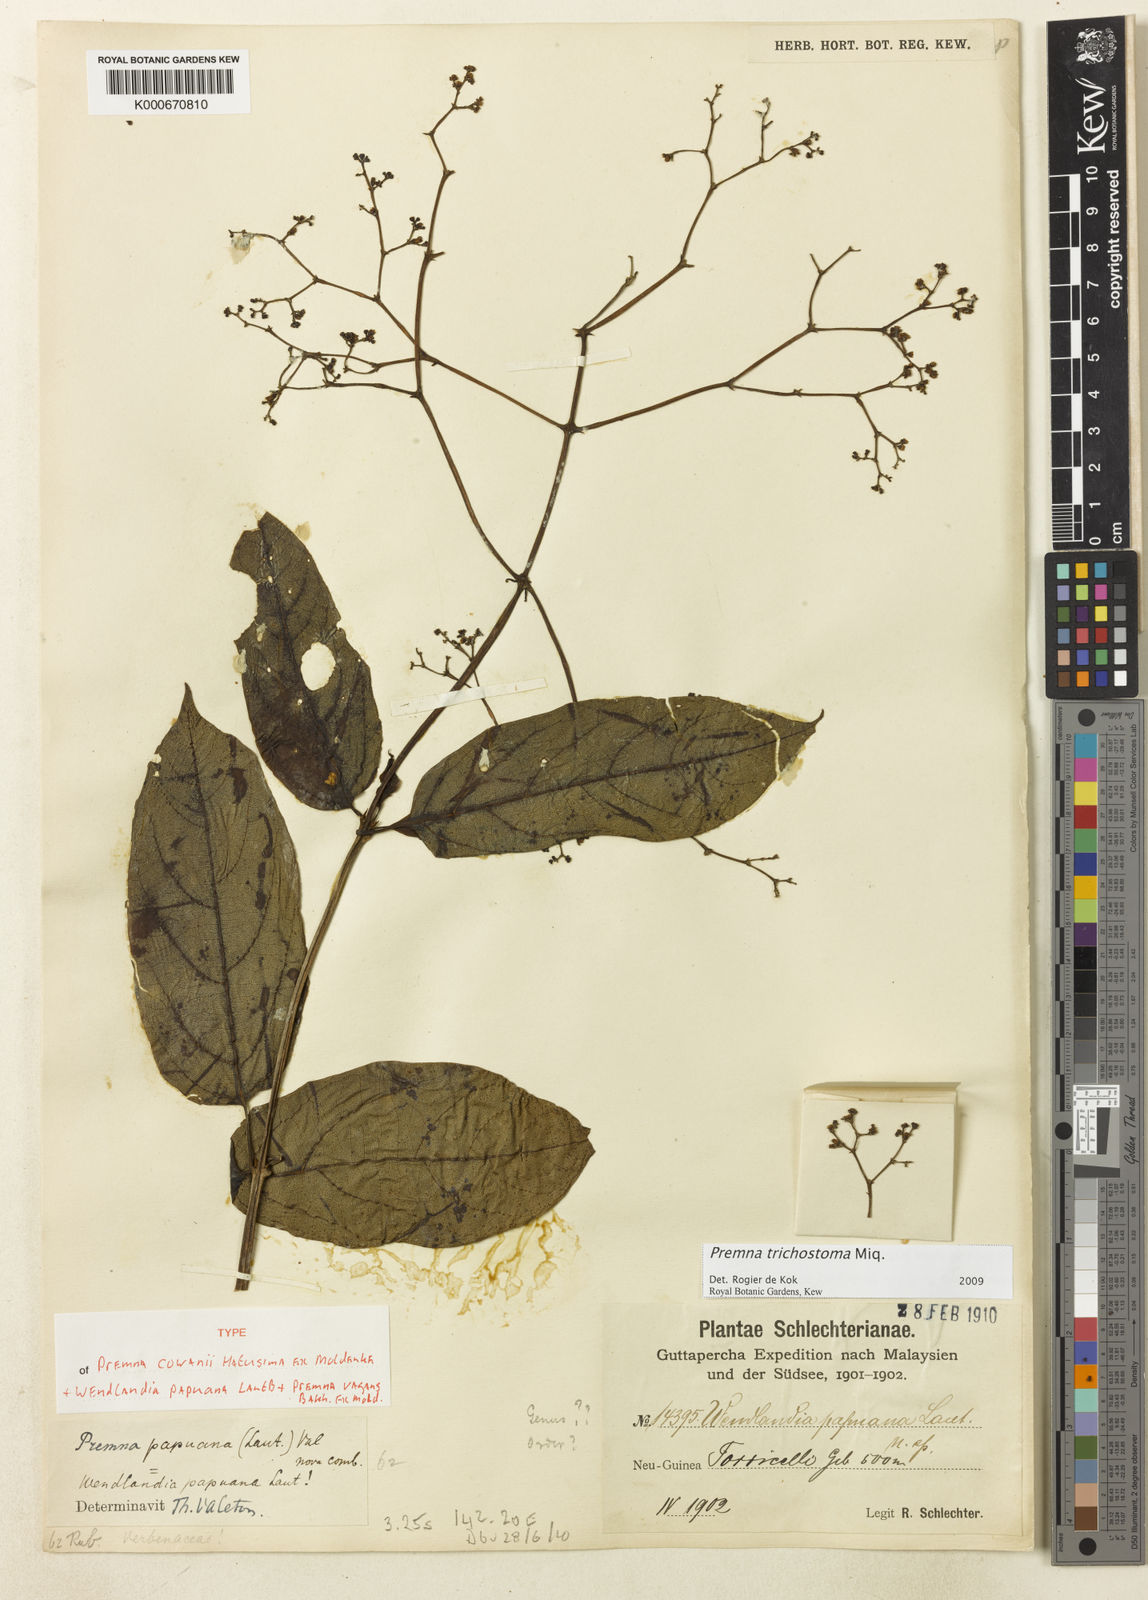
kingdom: Plantae
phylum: Tracheophyta
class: Magnoliopsida
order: Lamiales
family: Lamiaceae
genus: Premna
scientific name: Premna trichostoma
